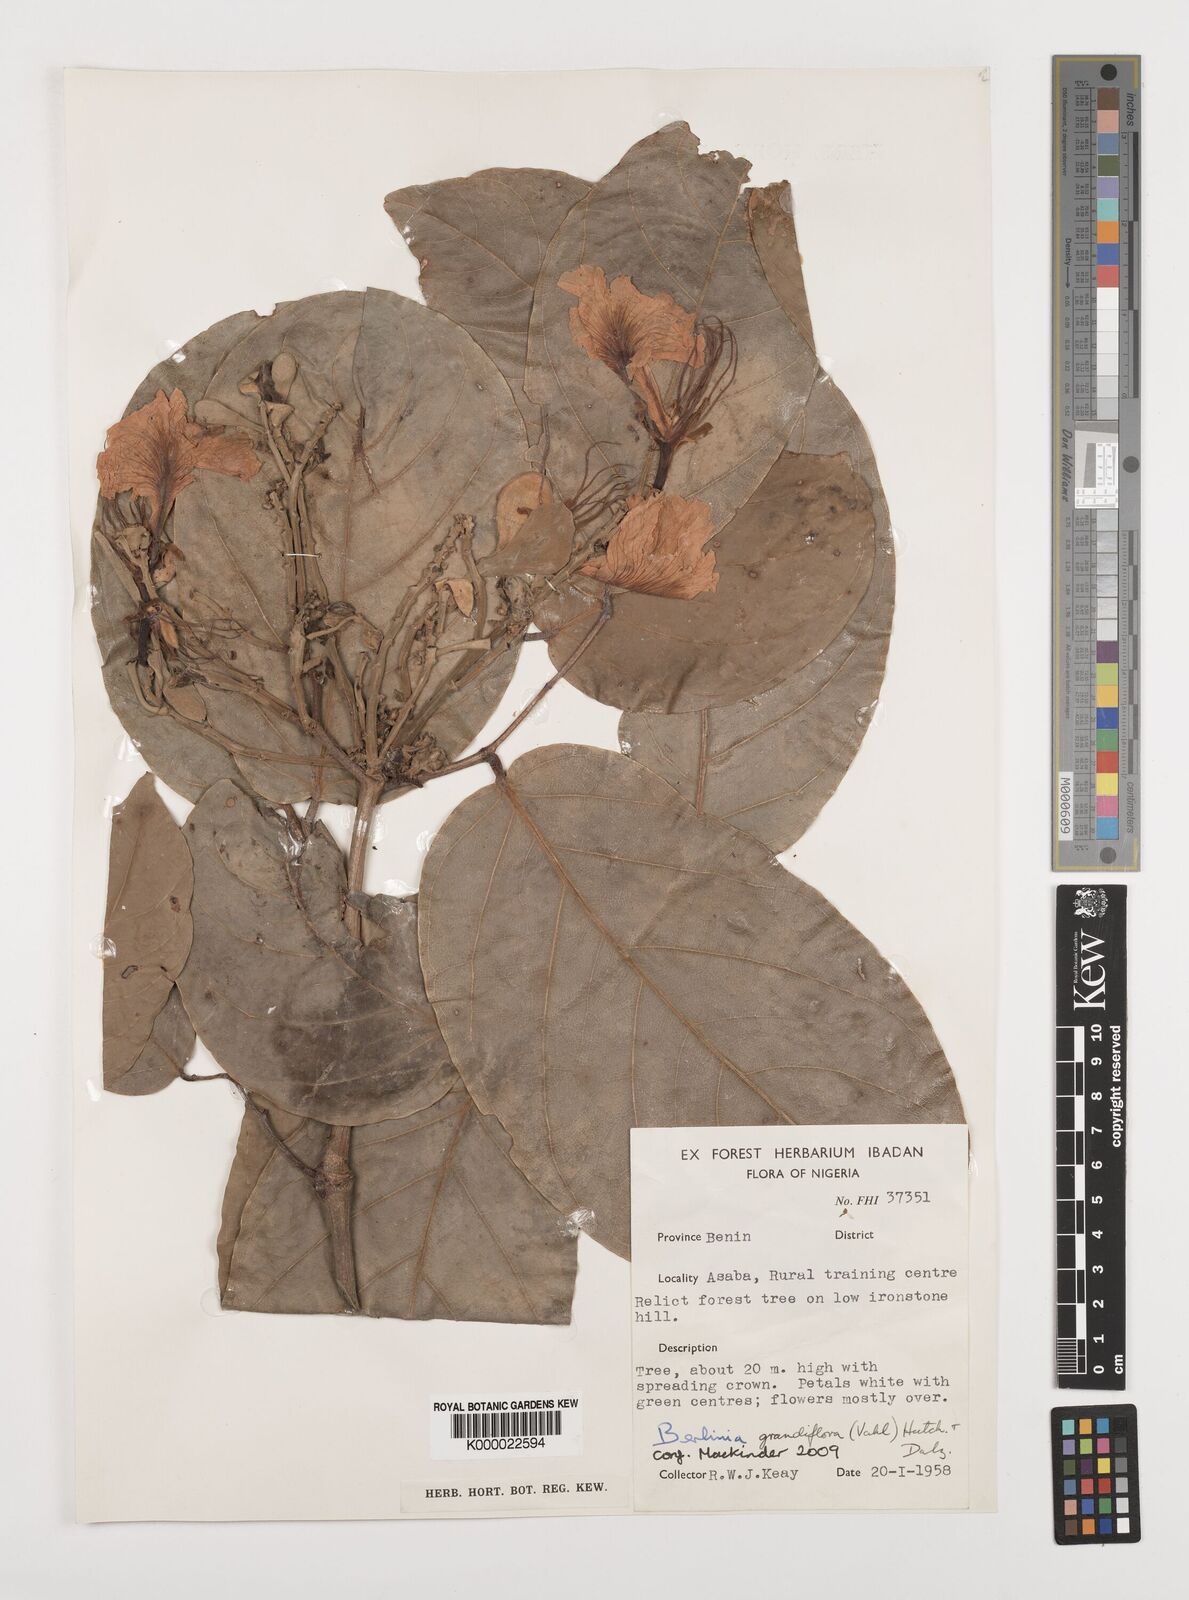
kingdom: Plantae
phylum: Tracheophyta
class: Magnoliopsida
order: Fabales
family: Fabaceae
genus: Berlinia
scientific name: Berlinia grandiflora
